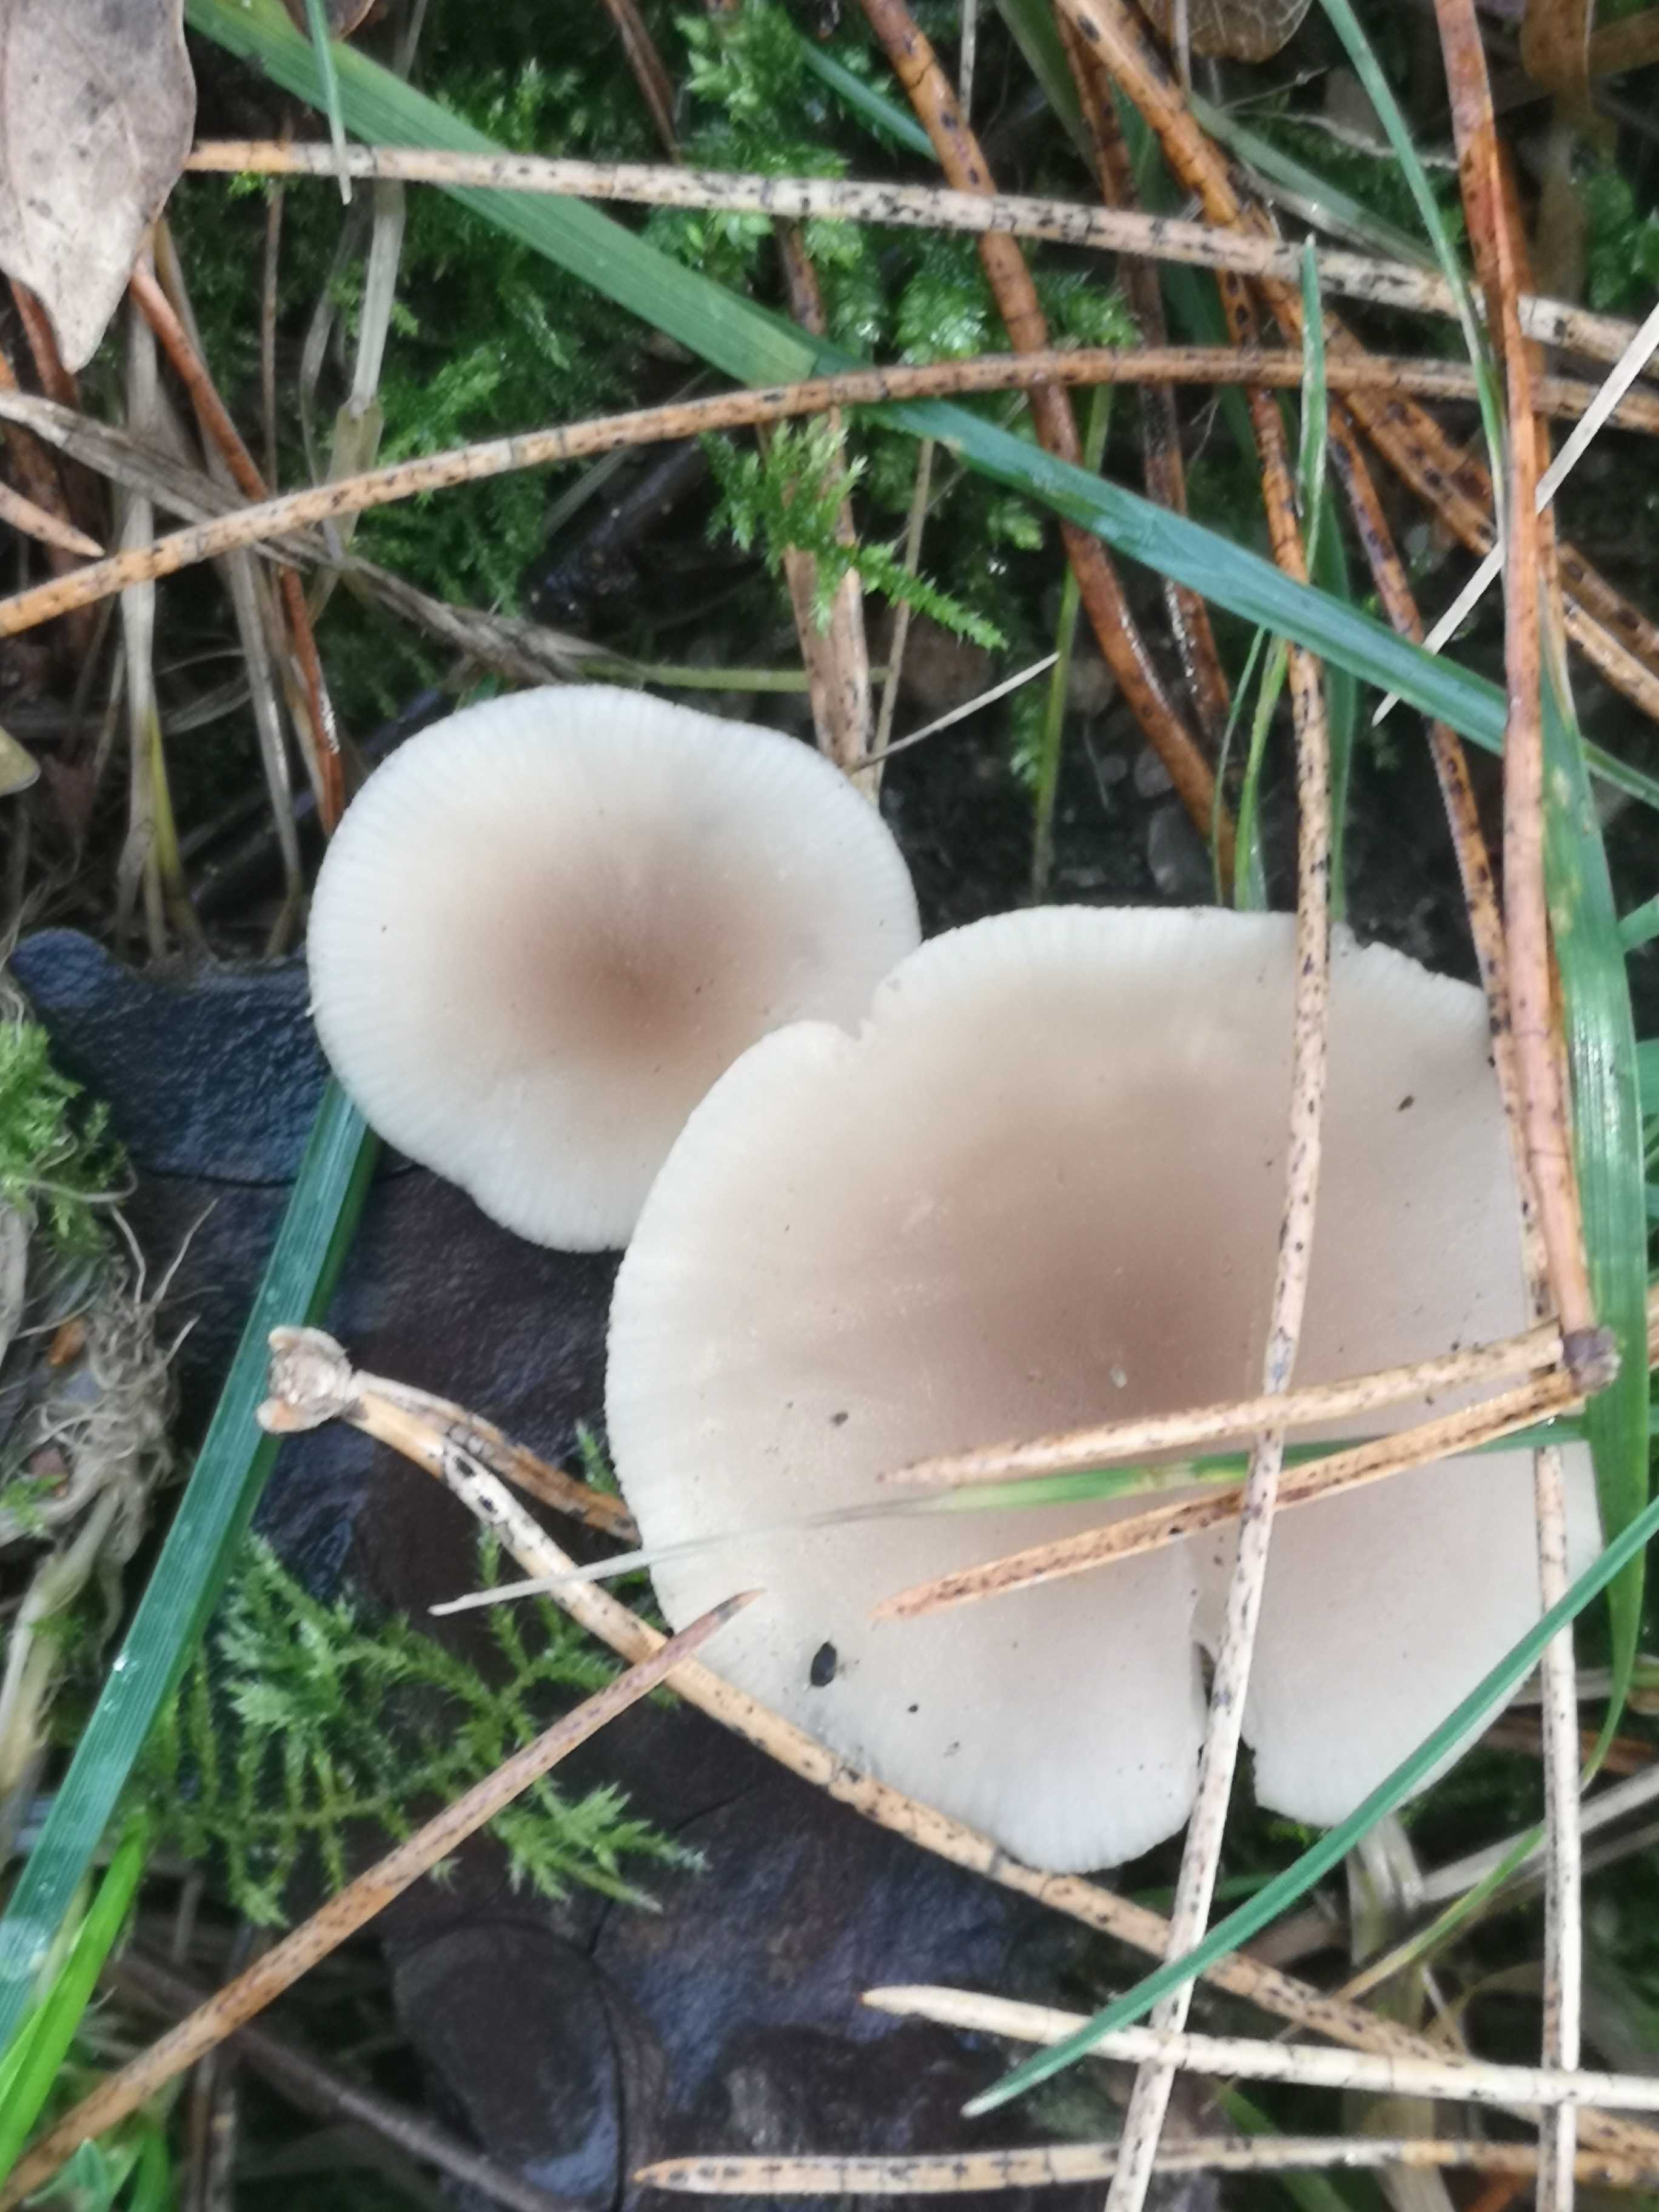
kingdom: Fungi
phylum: Basidiomycota
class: Agaricomycetes
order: Agaricales
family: Tricholomataceae
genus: Clitocybe
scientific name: Clitocybe fragrans
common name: vellugtende tragthat
